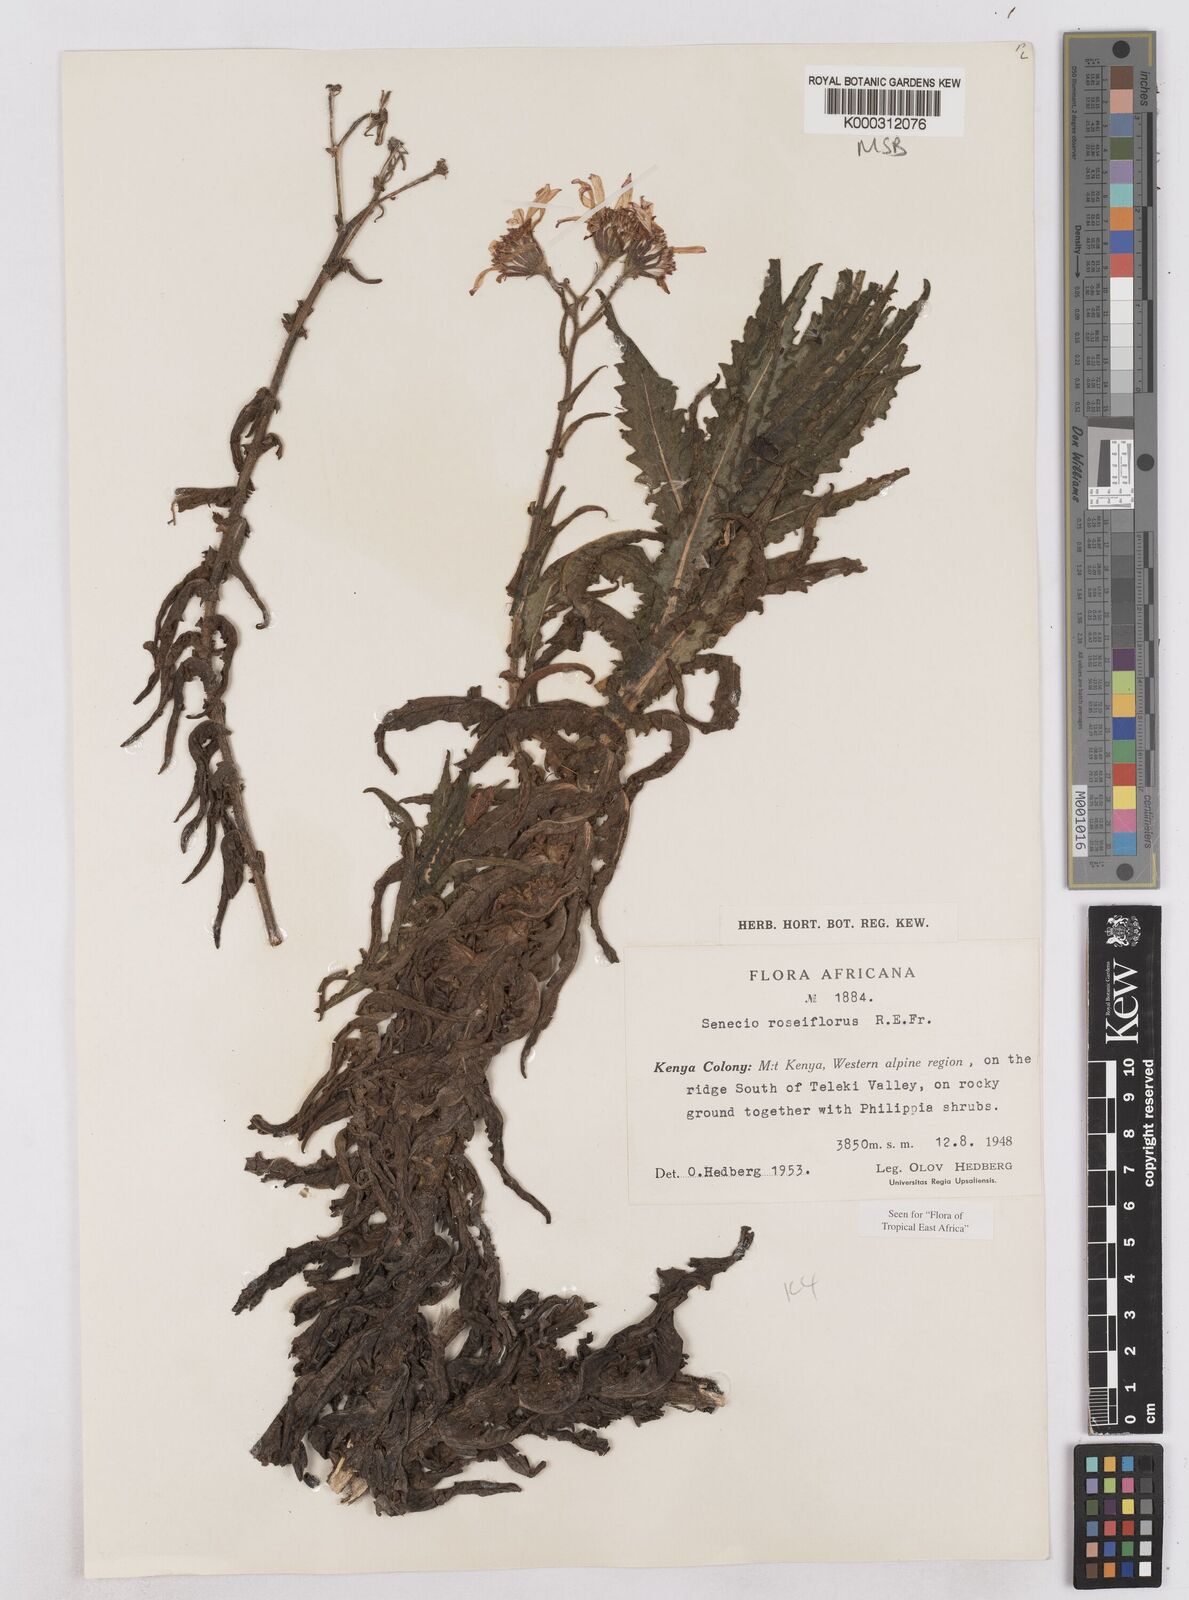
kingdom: Plantae
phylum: Tracheophyta
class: Magnoliopsida
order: Asterales
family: Asteraceae
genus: Senecio
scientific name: Senecio roseiflorus
